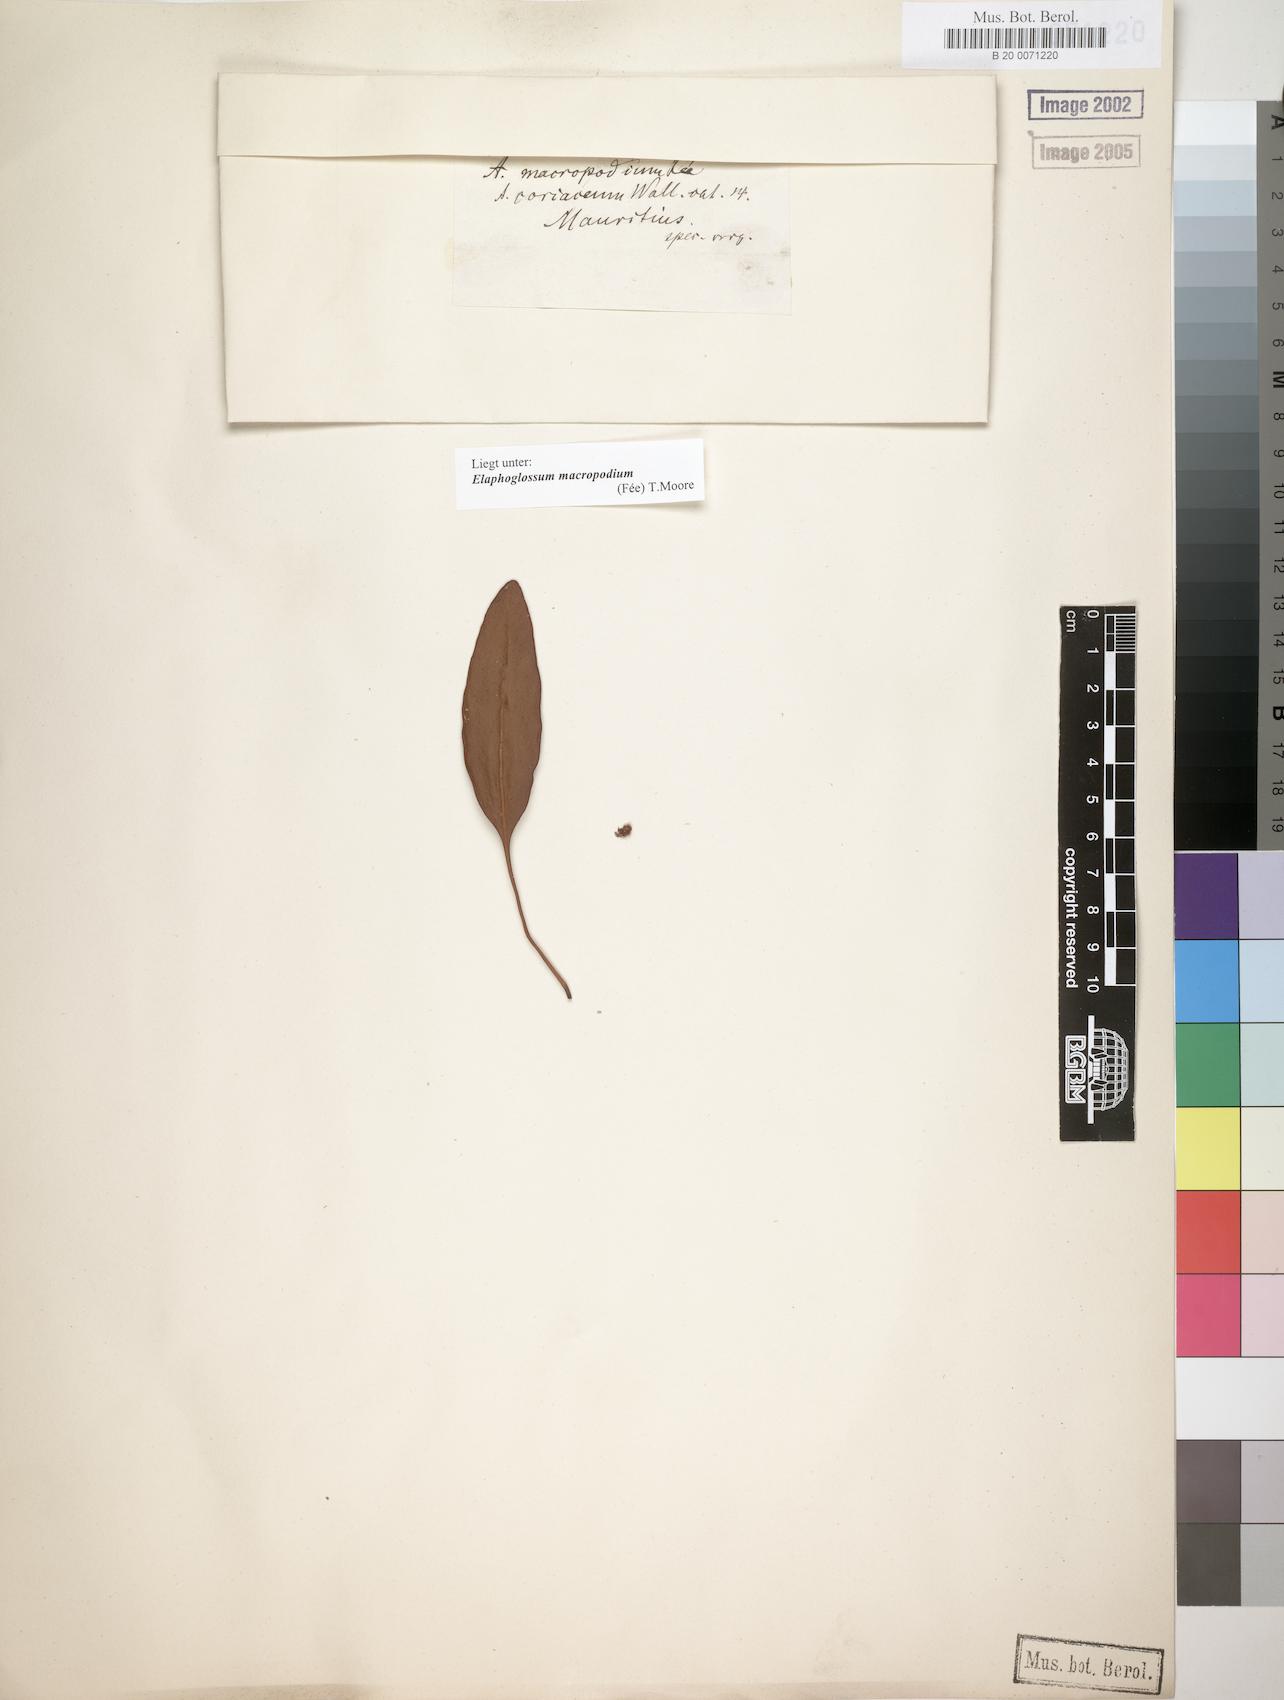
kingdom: Plantae
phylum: Tracheophyta
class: Polypodiopsida
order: Polypodiales
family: Dryopteridaceae
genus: Elaphoglossum
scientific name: Elaphoglossum macropodium
